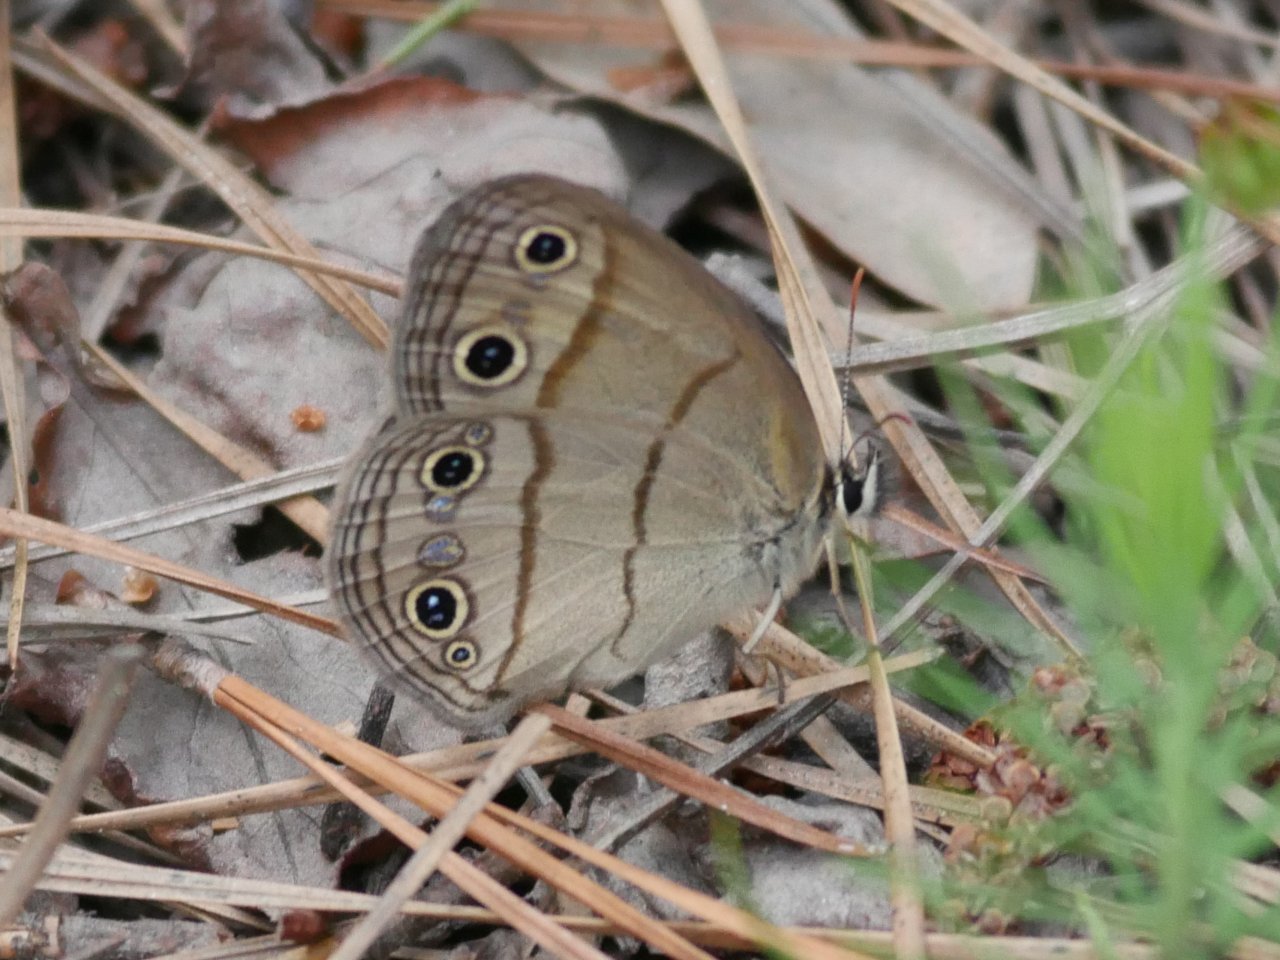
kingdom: Animalia
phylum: Arthropoda
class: Insecta
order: Lepidoptera
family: Nymphalidae
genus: Euptychia
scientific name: Euptychia cymela
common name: Little Wood Satyr
